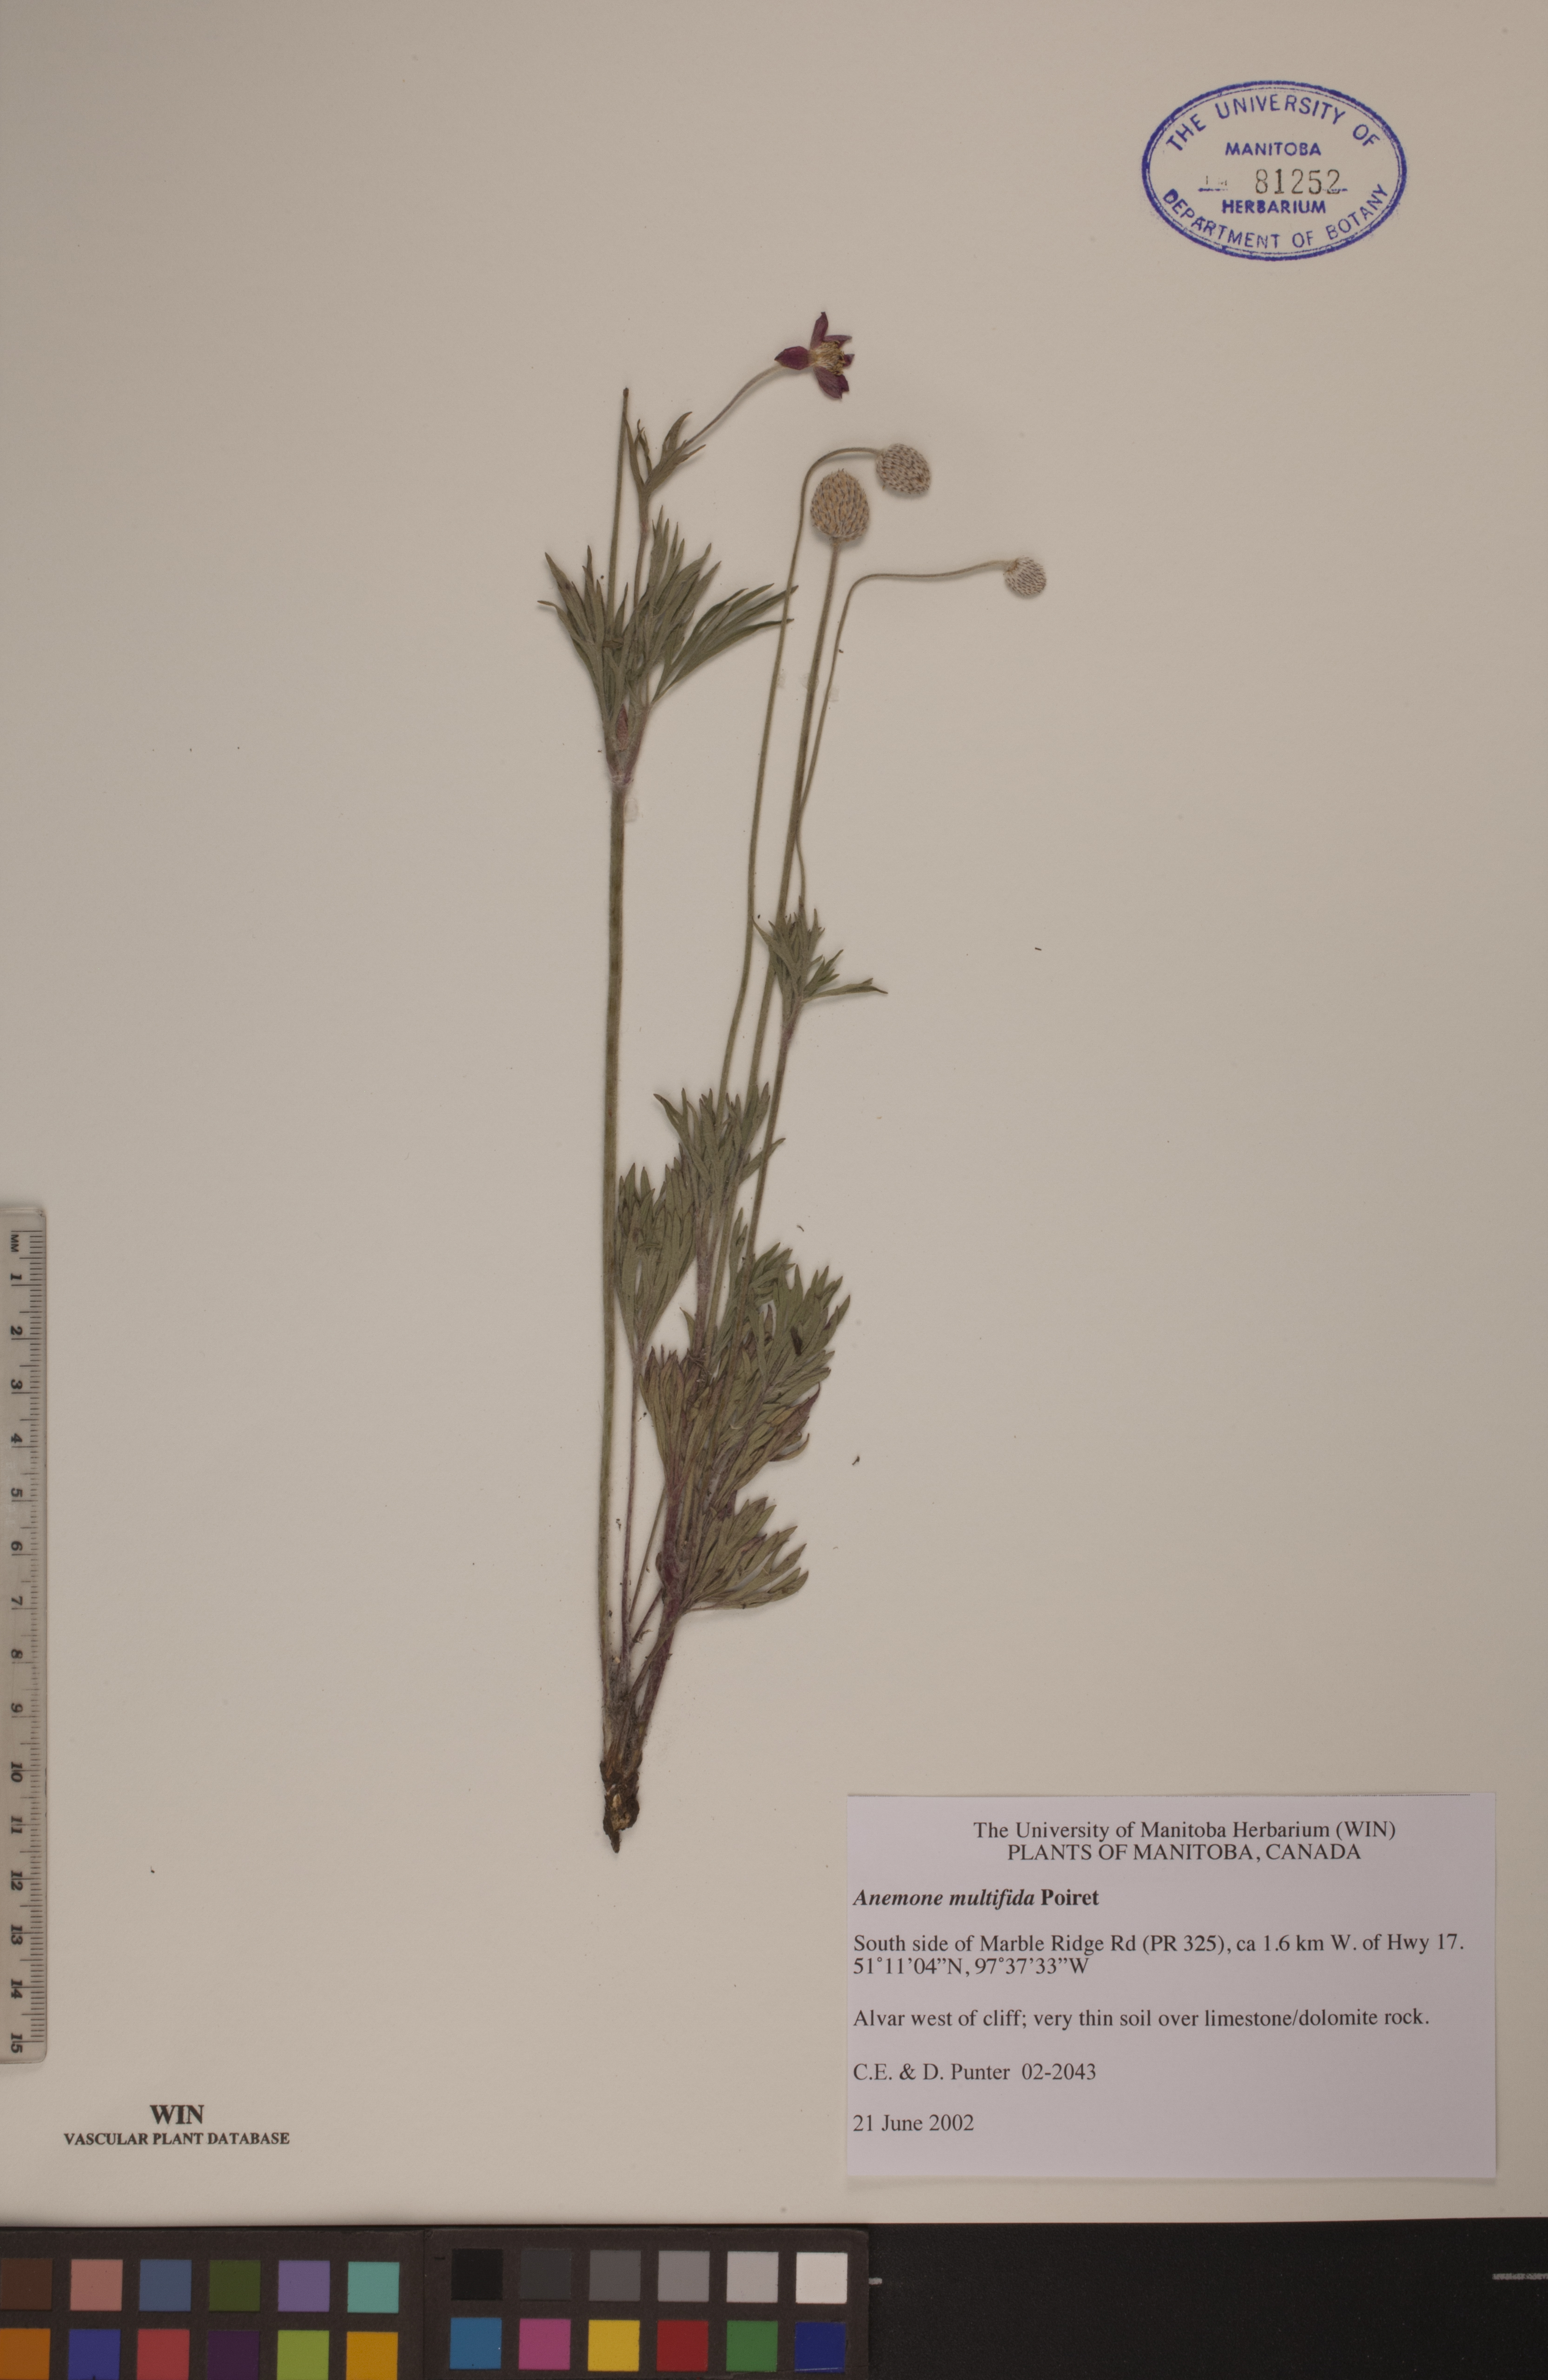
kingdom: Plantae
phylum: Tracheophyta
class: Magnoliopsida
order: Ranunculales
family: Ranunculaceae
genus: Anemone
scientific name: Anemone multifida
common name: Bird's-foot anemone
